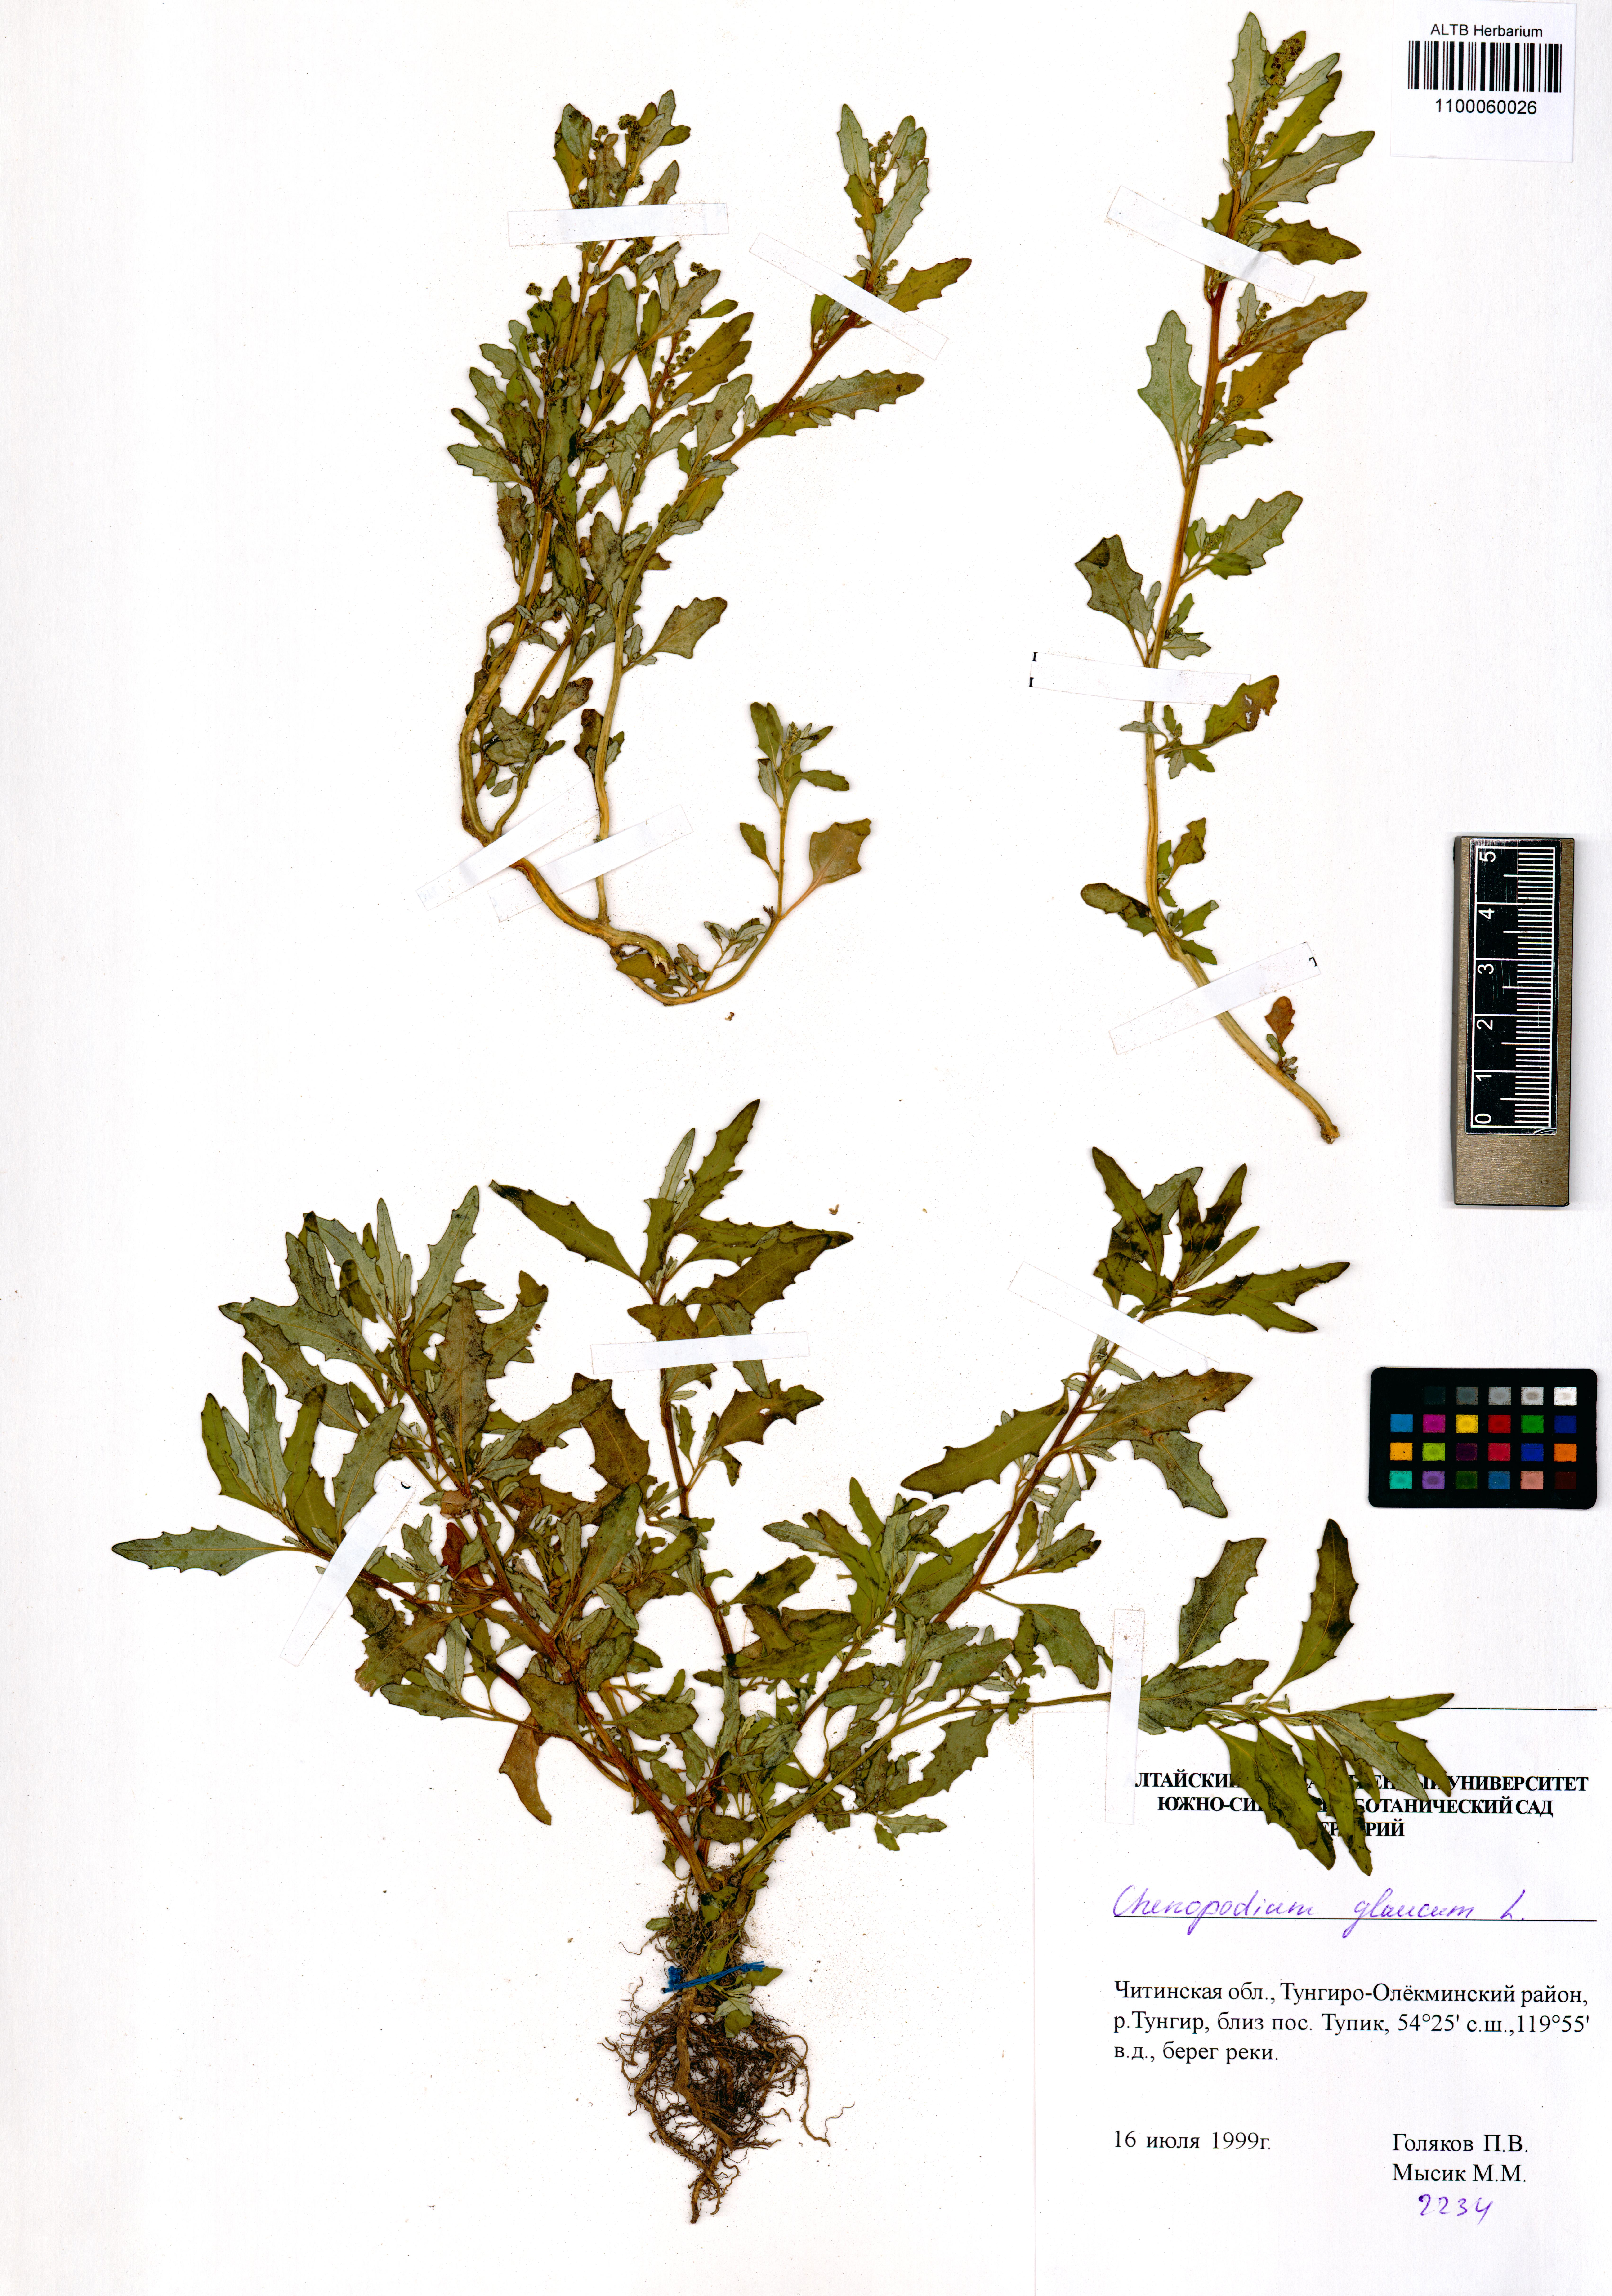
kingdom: Plantae
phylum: Tracheophyta
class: Magnoliopsida
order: Caryophyllales
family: Amaranthaceae
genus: Oxybasis
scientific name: Oxybasis glauca
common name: Glaucous goosefoot
